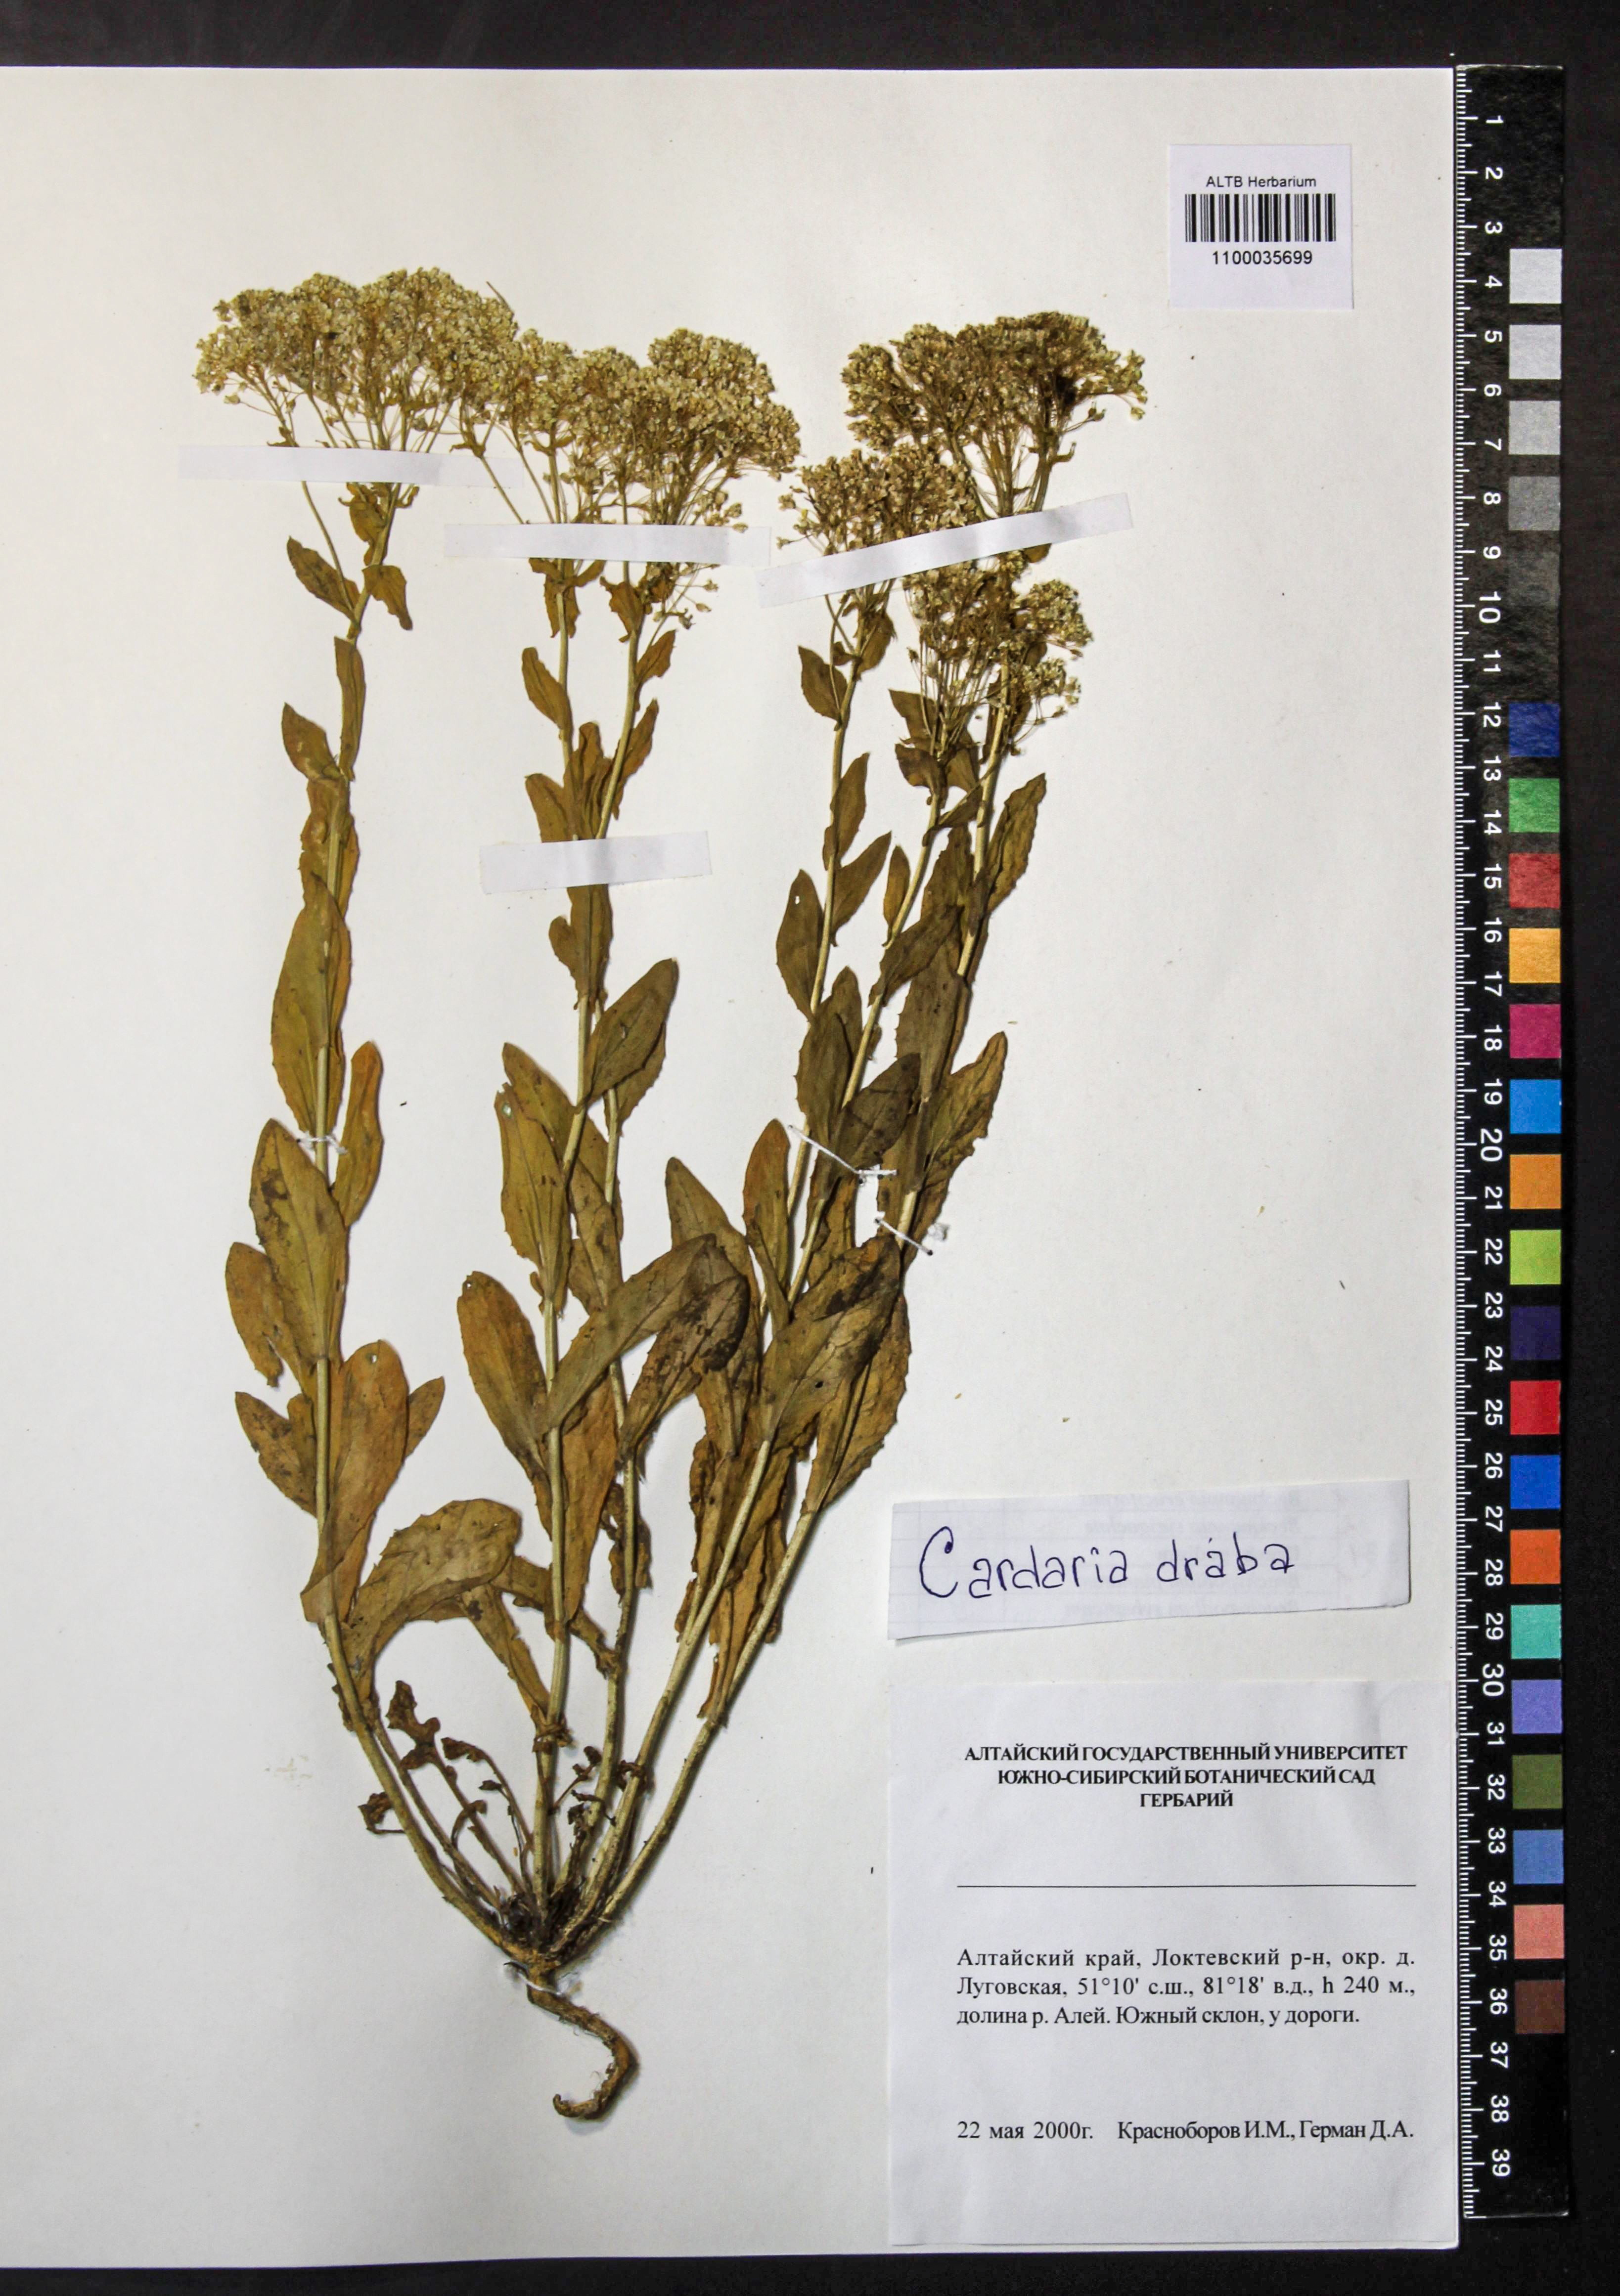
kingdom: Plantae
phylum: Tracheophyta
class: Magnoliopsida
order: Brassicales
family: Brassicaceae
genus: Lepidium
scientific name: Lepidium draba
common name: Hoary cress
